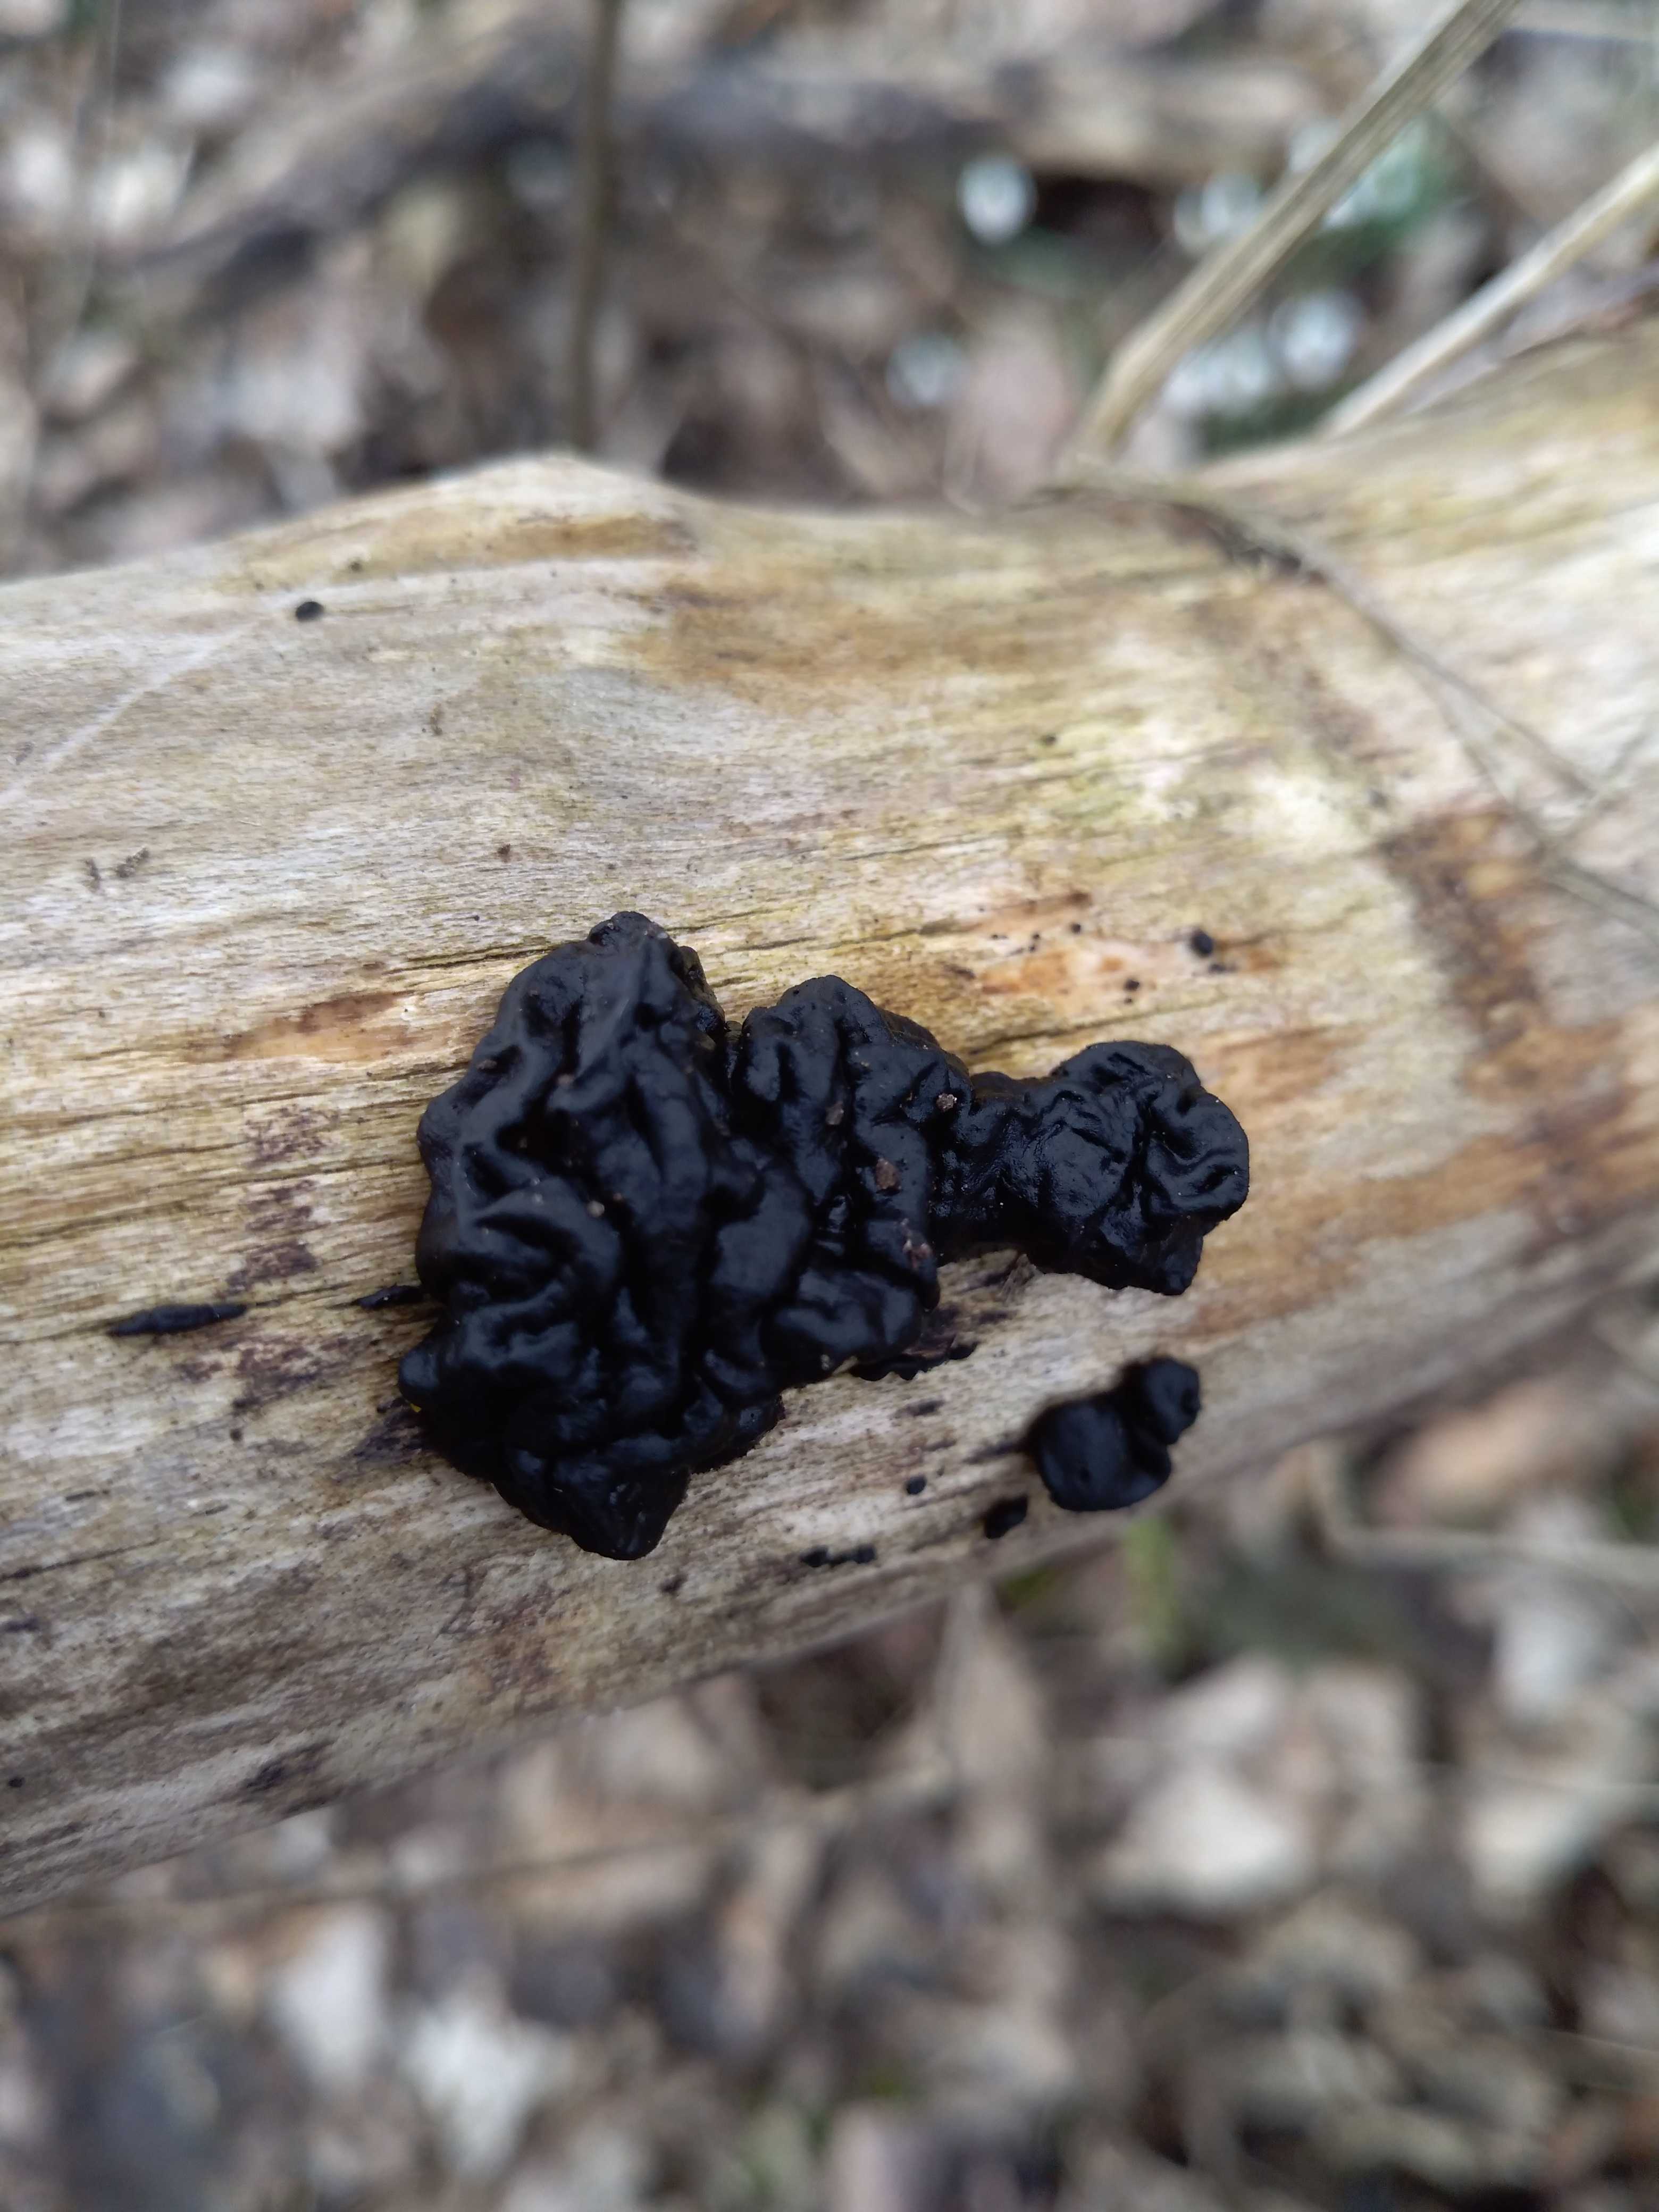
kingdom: Fungi
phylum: Basidiomycota
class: Agaricomycetes
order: Auriculariales
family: Auriculariaceae
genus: Exidia
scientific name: Exidia nigricans
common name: almindelig bævretop
